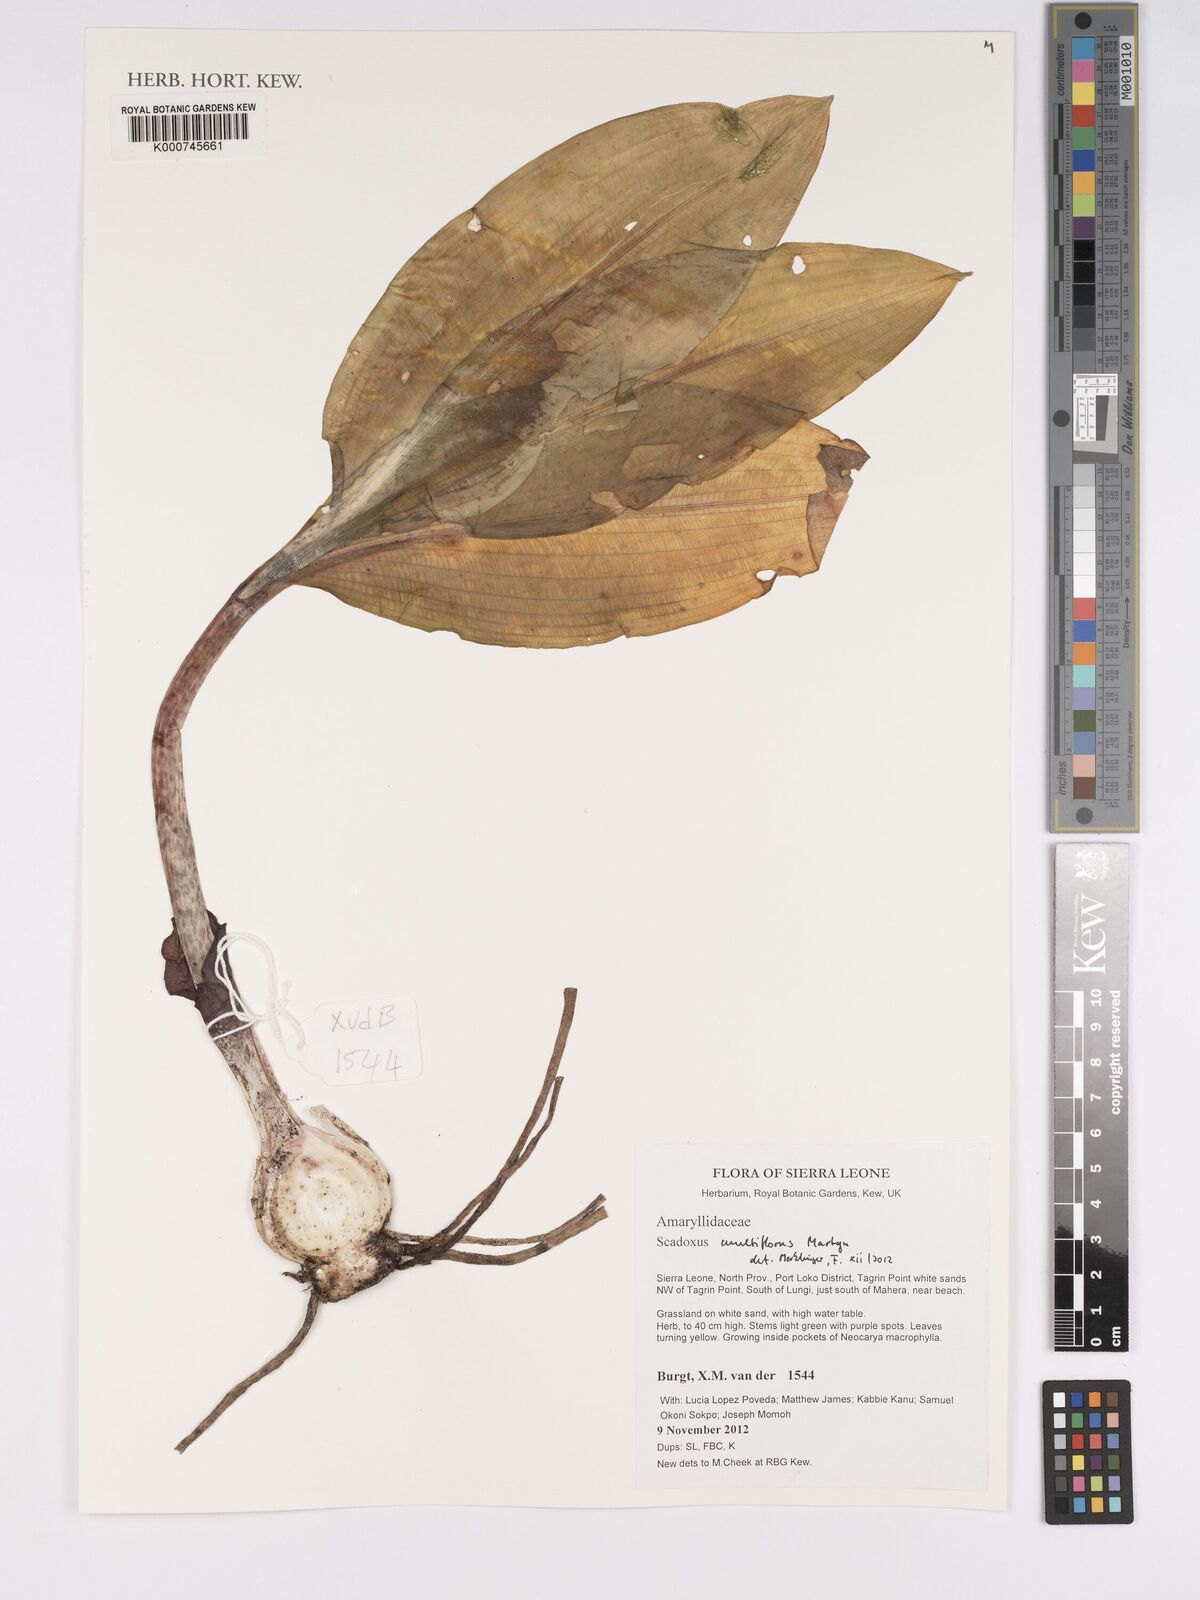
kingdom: Plantae
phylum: Tracheophyta
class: Liliopsida
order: Asparagales
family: Amaryllidaceae
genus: Scadoxus
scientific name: Scadoxus multiflorus
